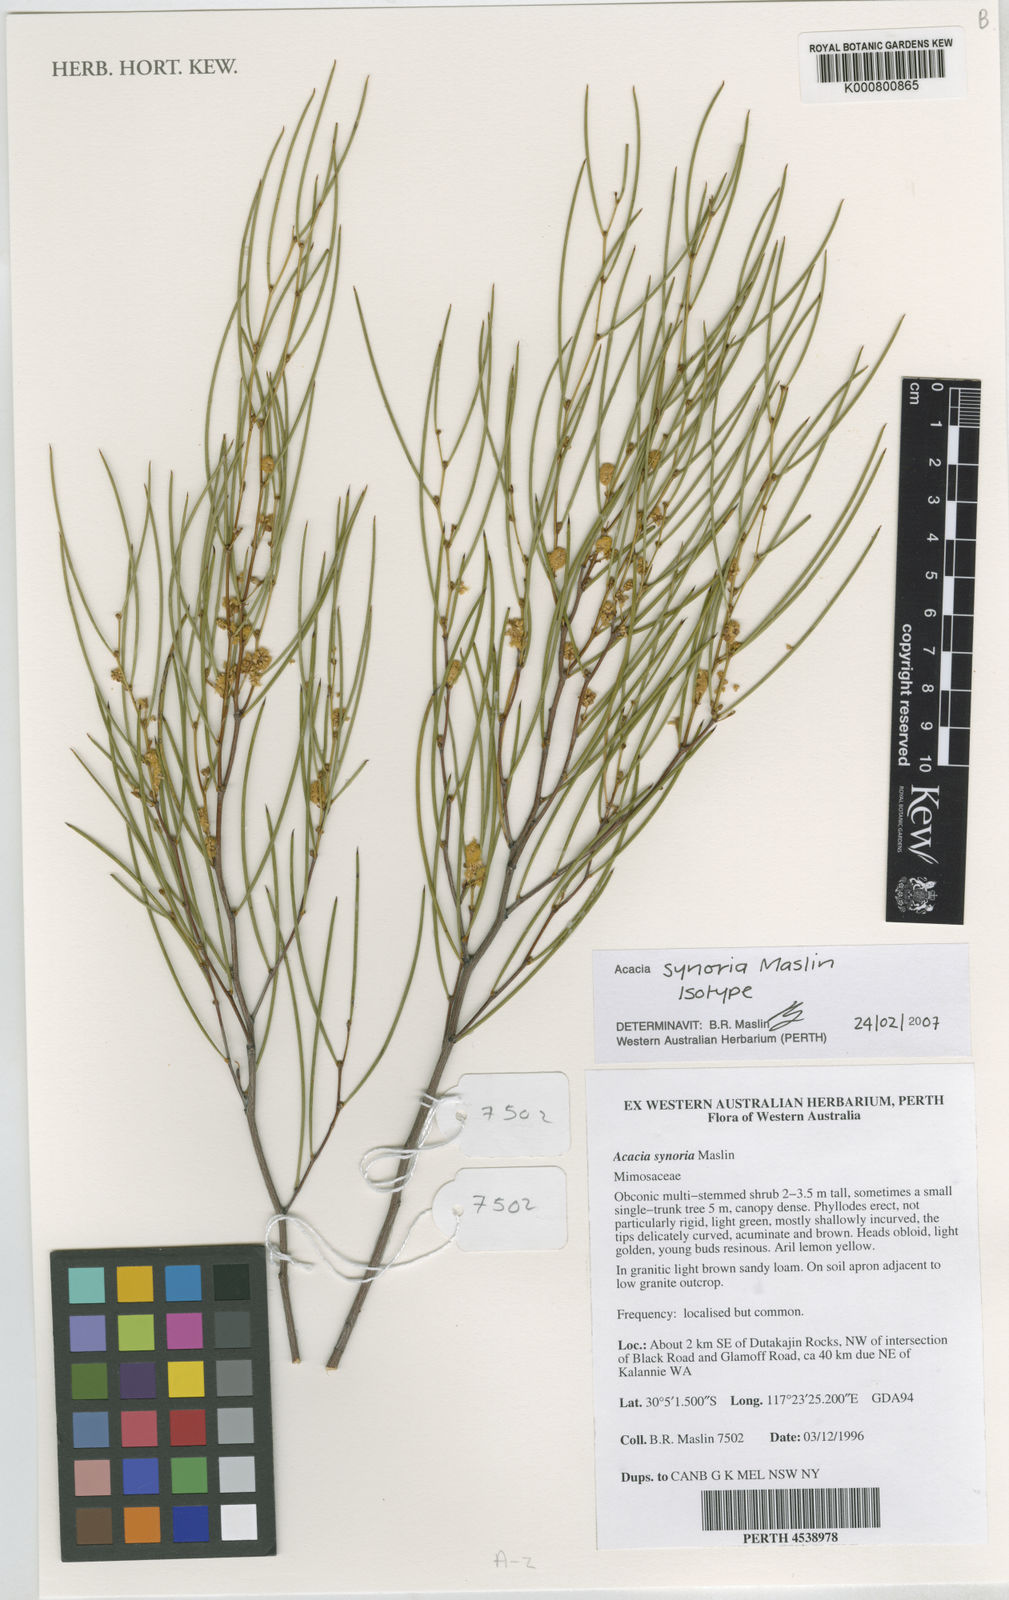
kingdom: Plantae
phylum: Tracheophyta
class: Magnoliopsida
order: Fabales
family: Fabaceae
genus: Acacia
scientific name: Acacia synoria
